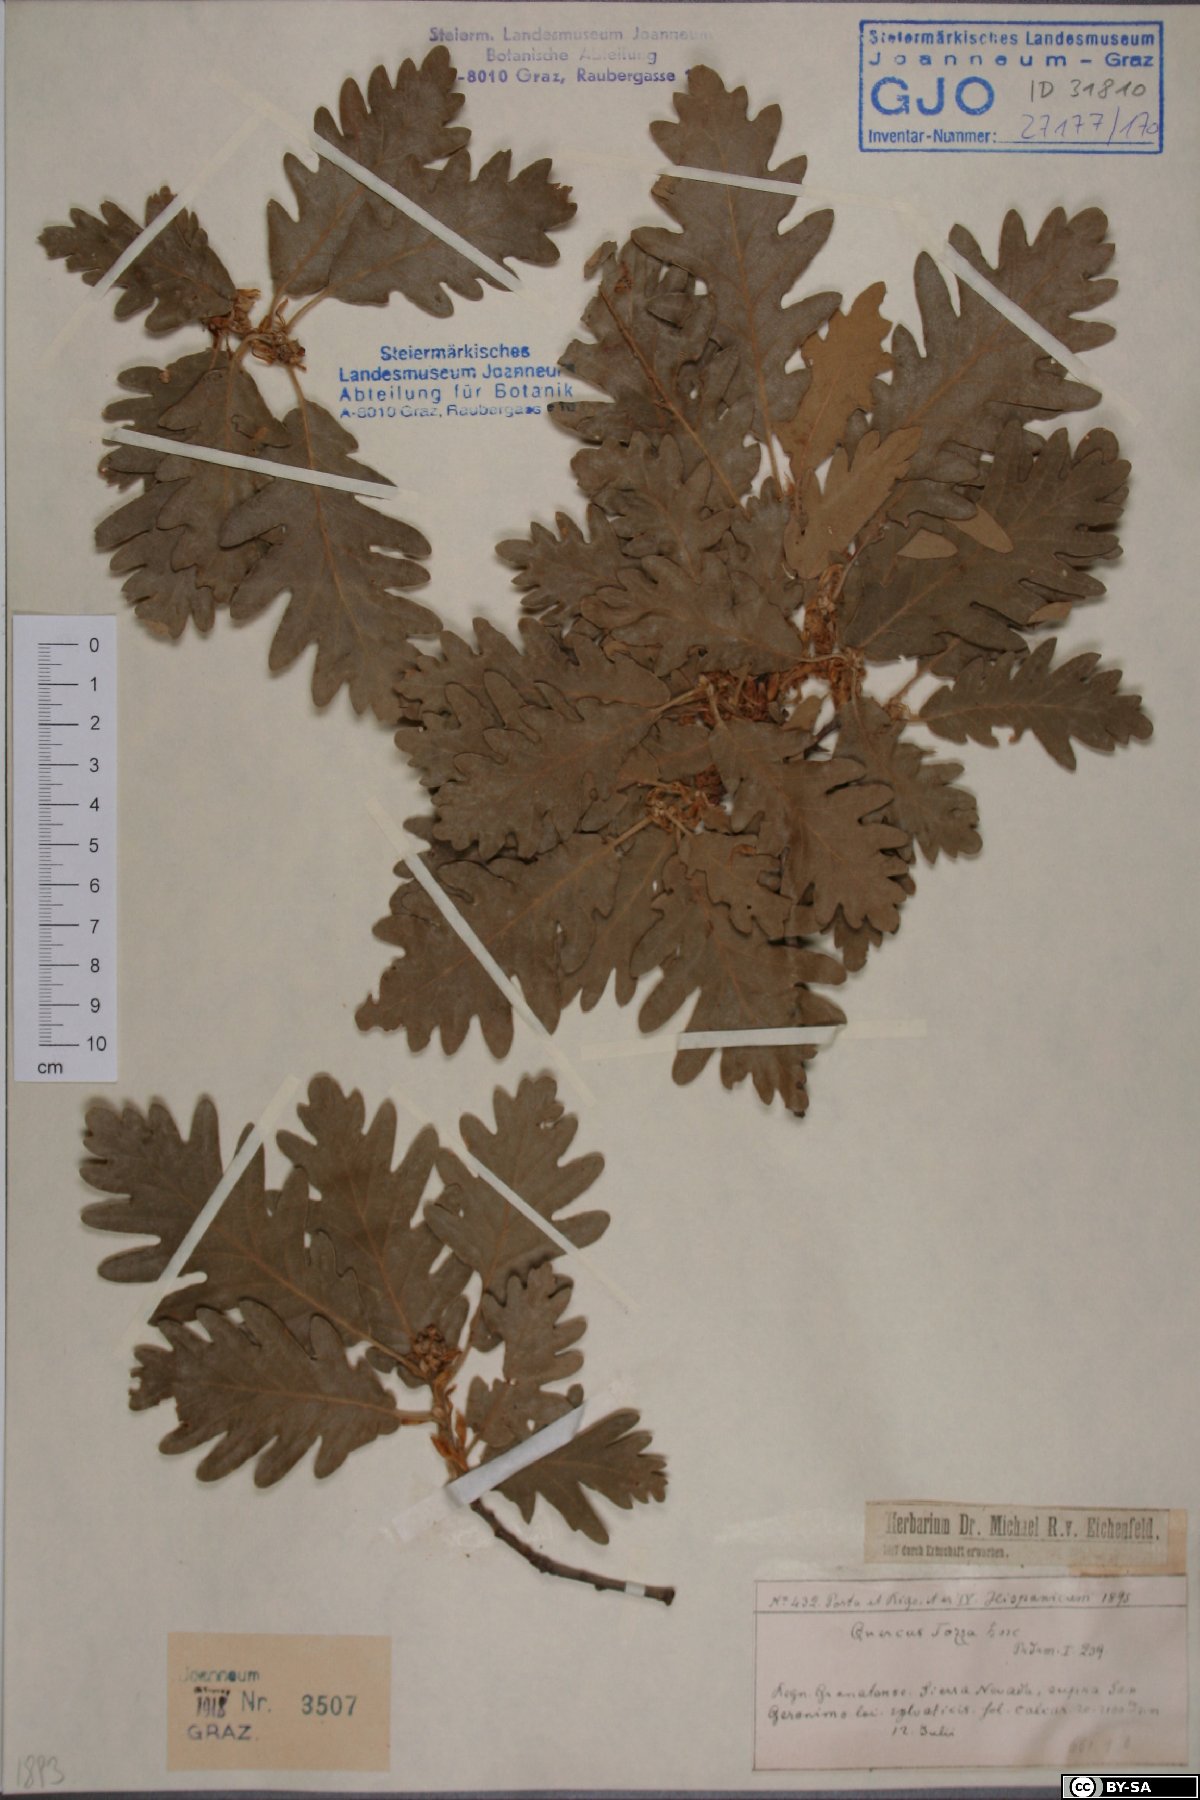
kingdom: Plantae
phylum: Tracheophyta
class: Magnoliopsida
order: Fagales
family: Fagaceae
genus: Quercus
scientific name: Quercus pyrenaica
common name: Pyrenean oak
